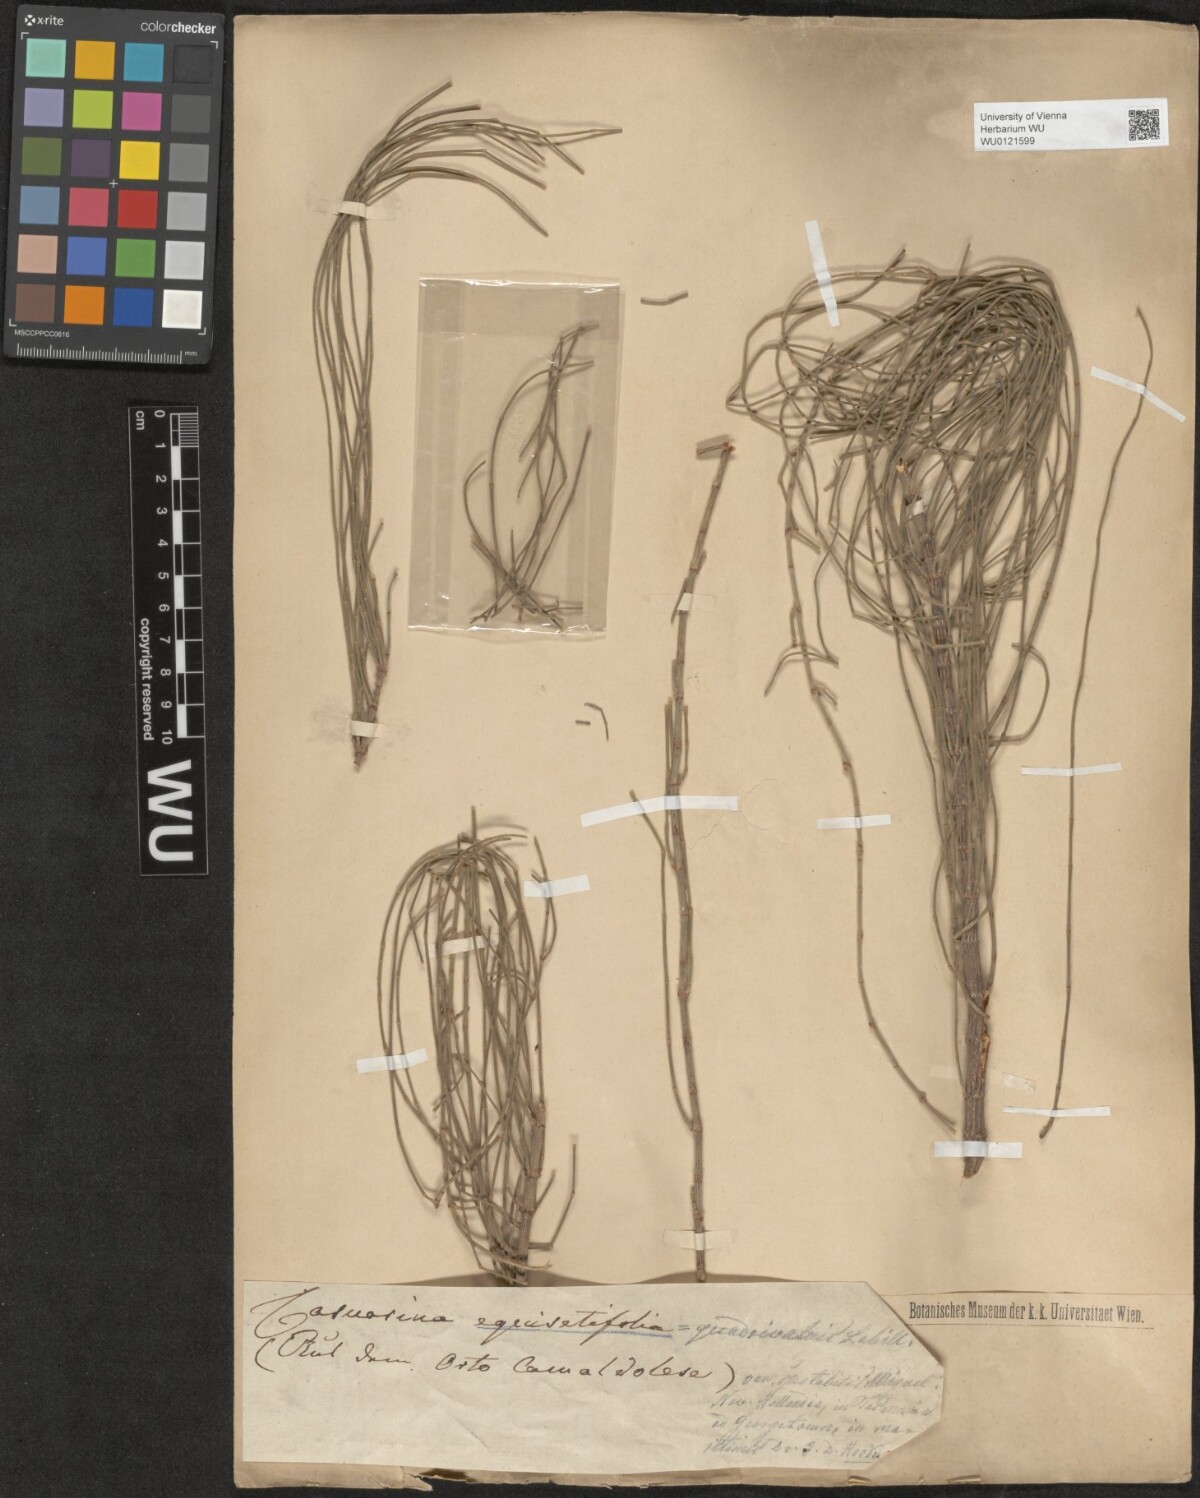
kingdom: Plantae
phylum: Tracheophyta
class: Magnoliopsida
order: Fagales
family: Casuarinaceae
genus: Casuarina
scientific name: Casuarina equisetifolia
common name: Beach sheoak
